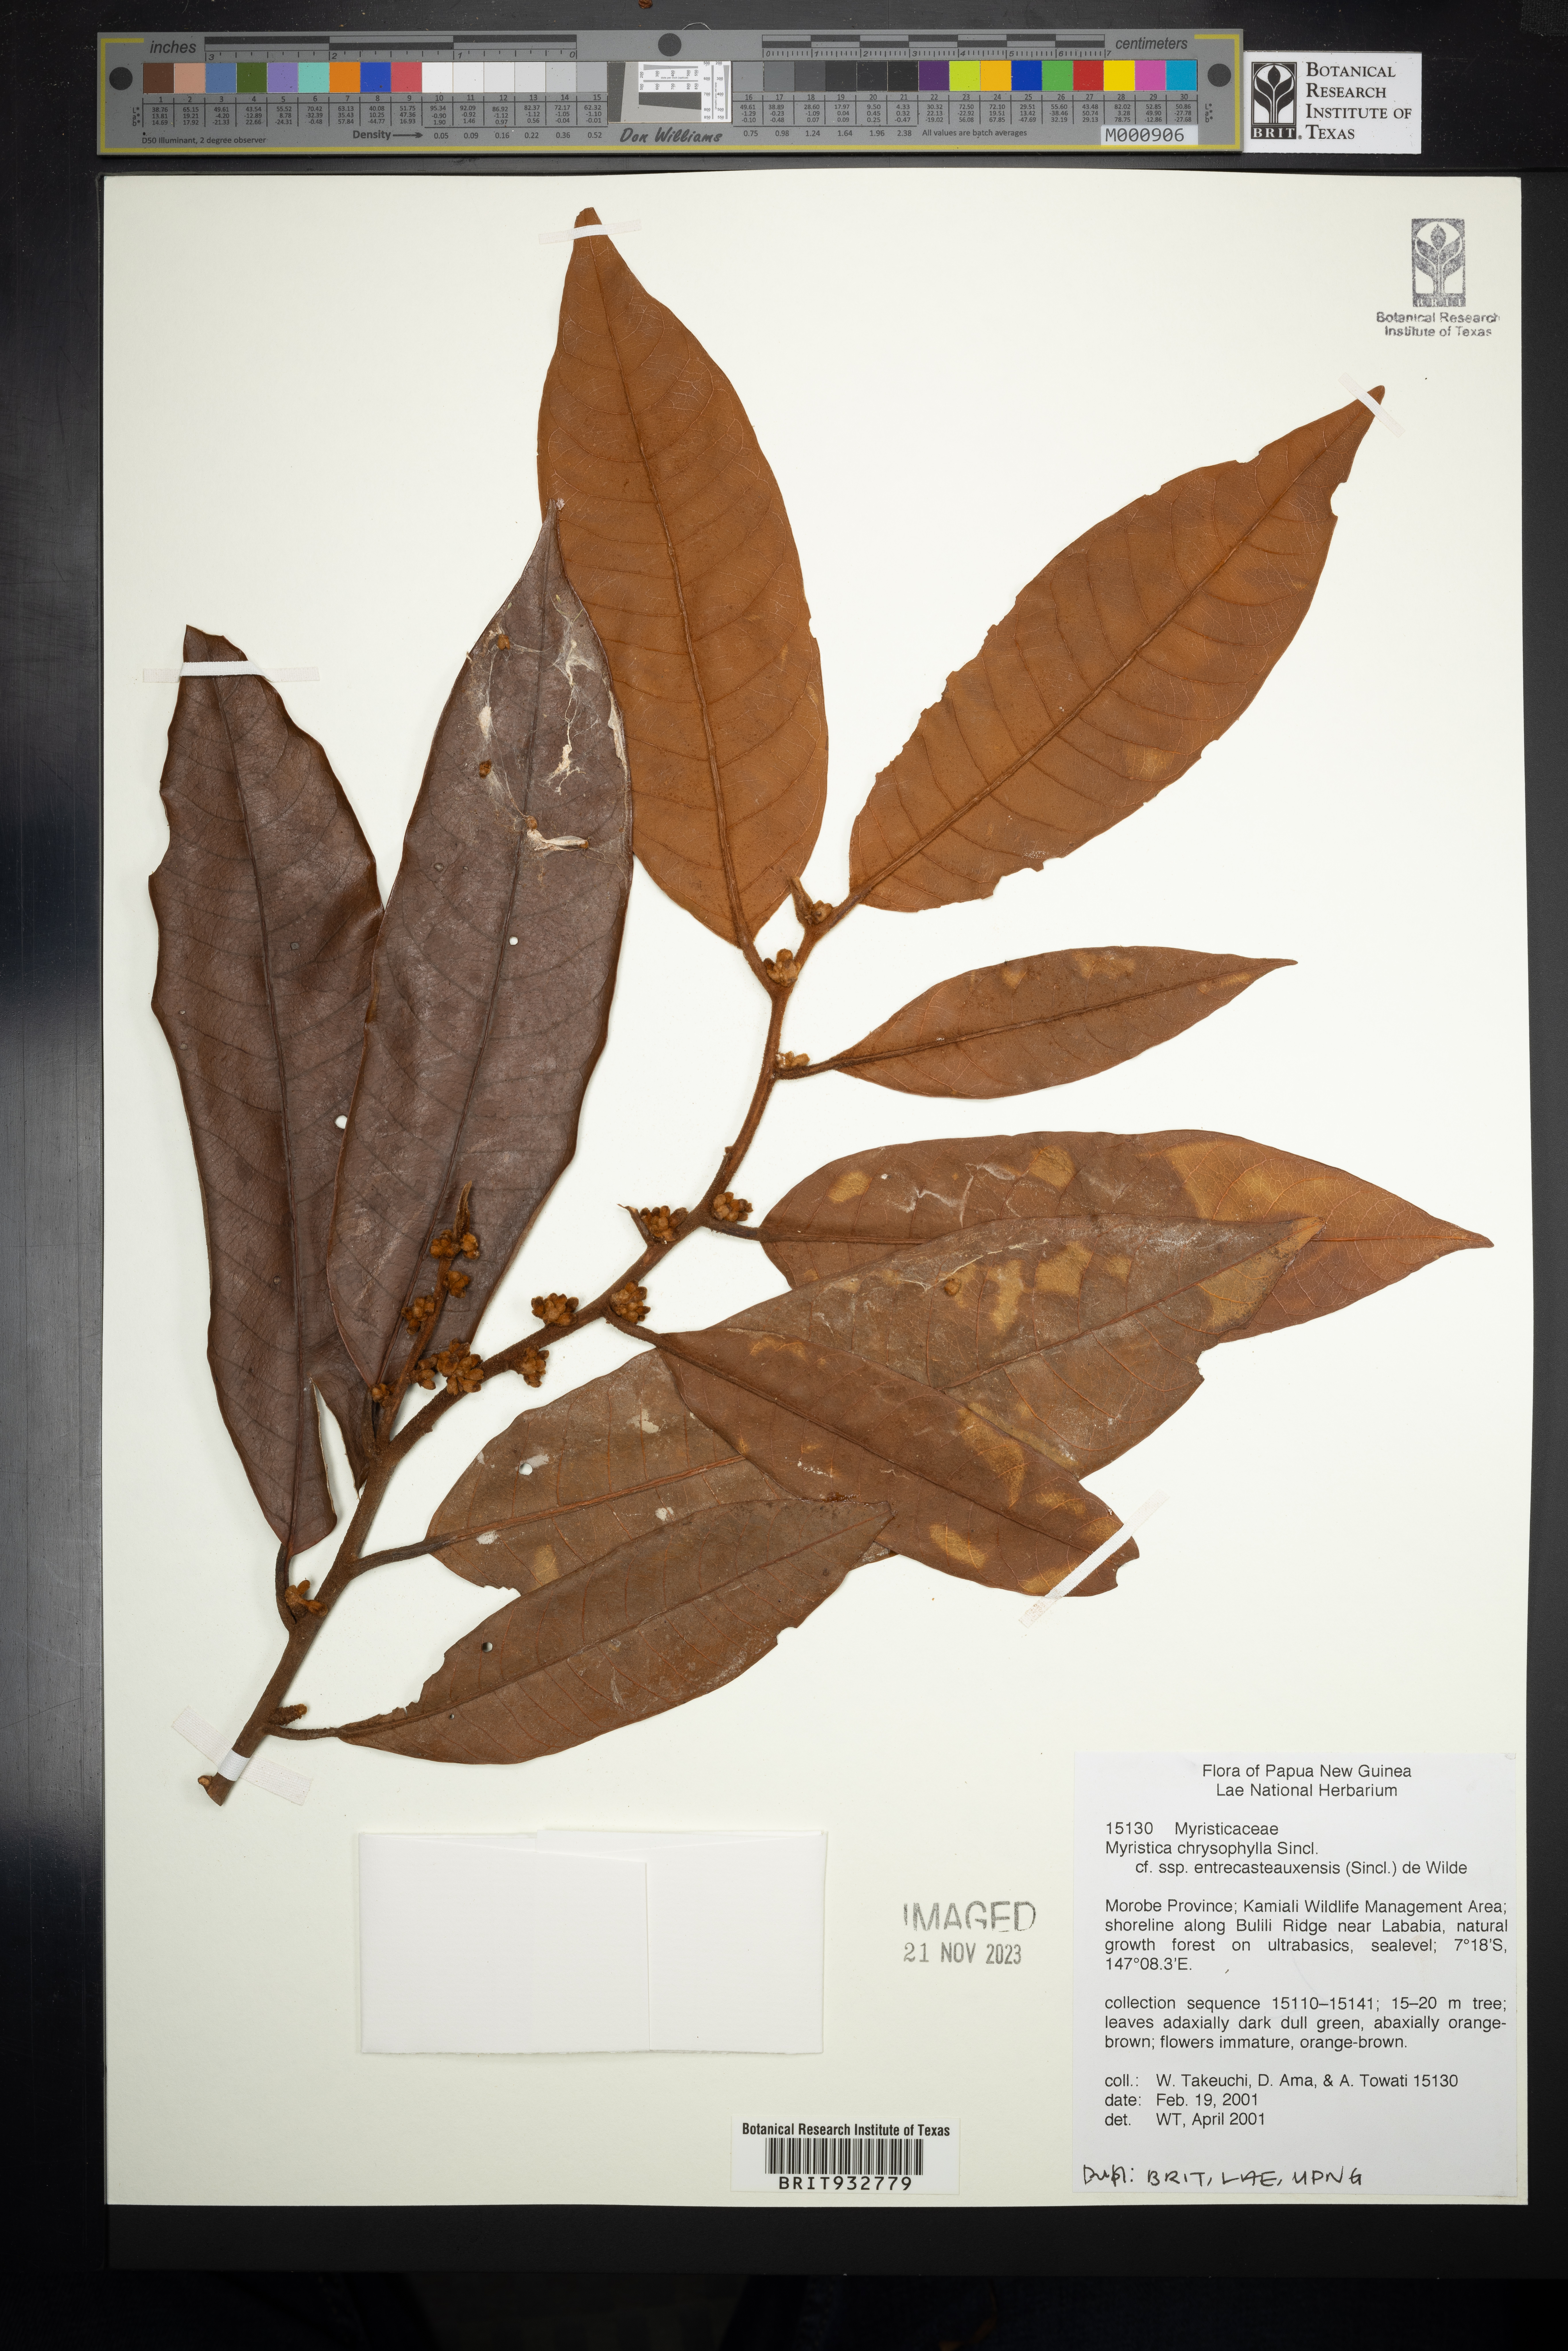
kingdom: Plantae
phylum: Tracheophyta
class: Magnoliopsida
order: Magnoliales
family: Myristicaceae
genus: Myristica
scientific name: Myristica
